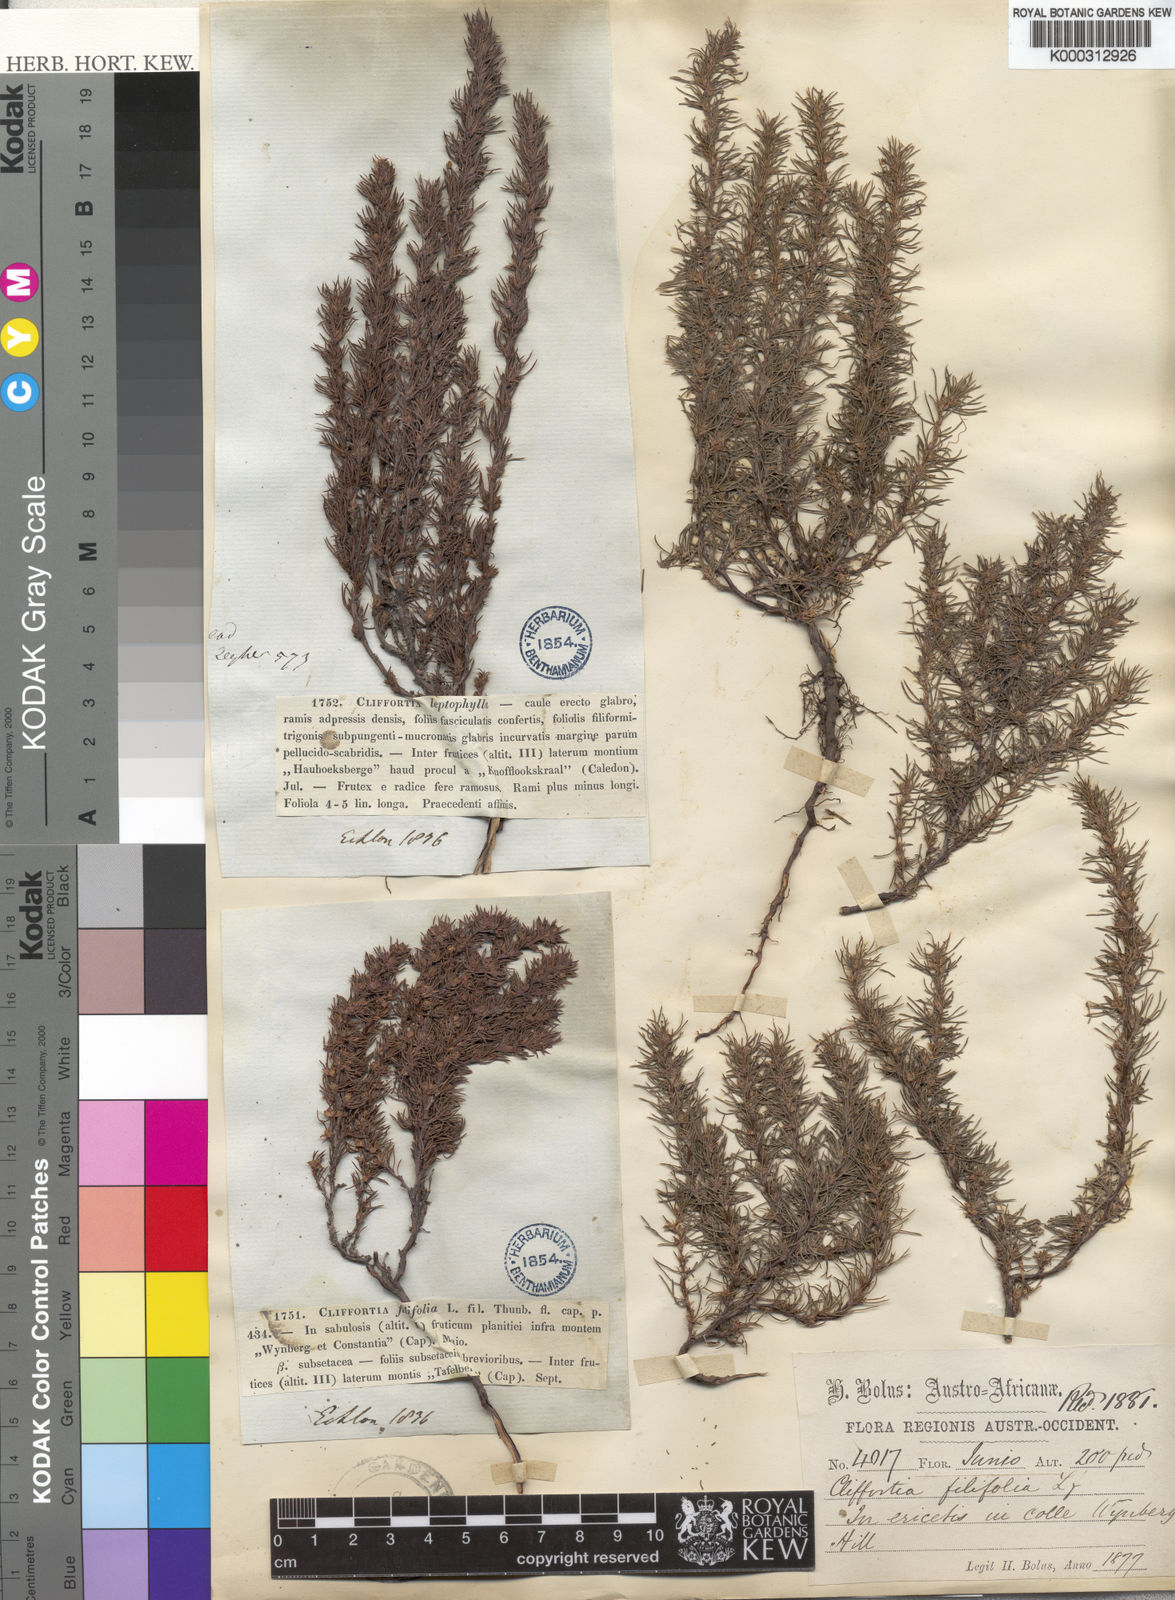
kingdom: Plantae
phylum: Tracheophyta
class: Magnoliopsida
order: Rosales
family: Rosaceae
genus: Cliffortia
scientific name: Cliffortia filifolia
